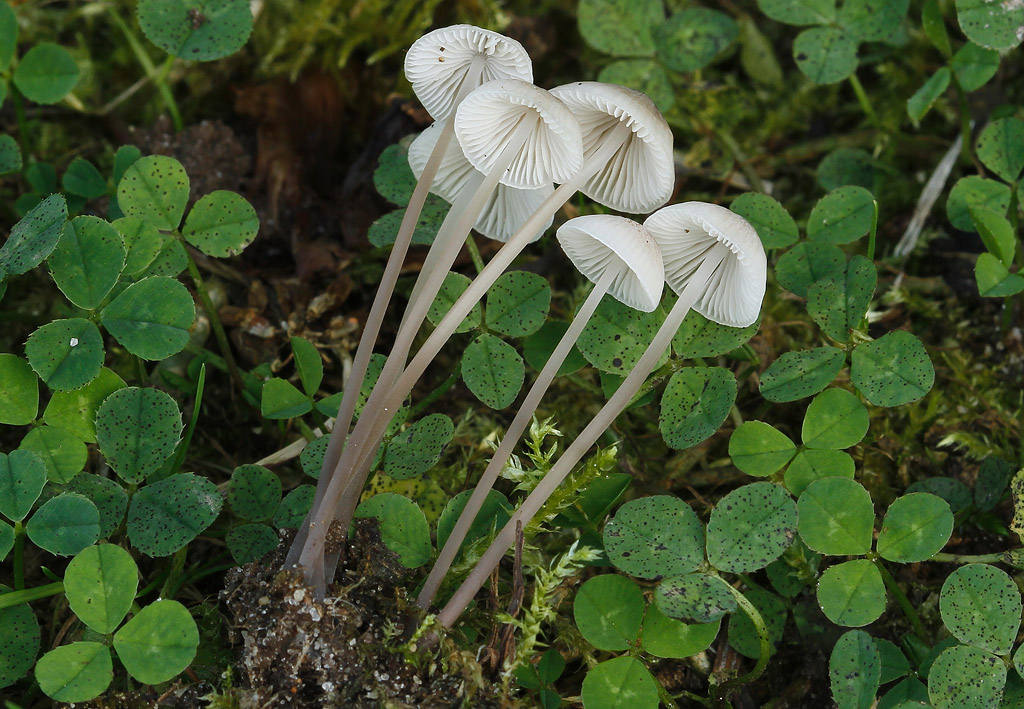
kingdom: Fungi
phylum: Basidiomycota
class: Agaricomycetes
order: Agaricales
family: Mycenaceae
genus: Mycena
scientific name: Mycena filopes
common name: jod-huesvamp
